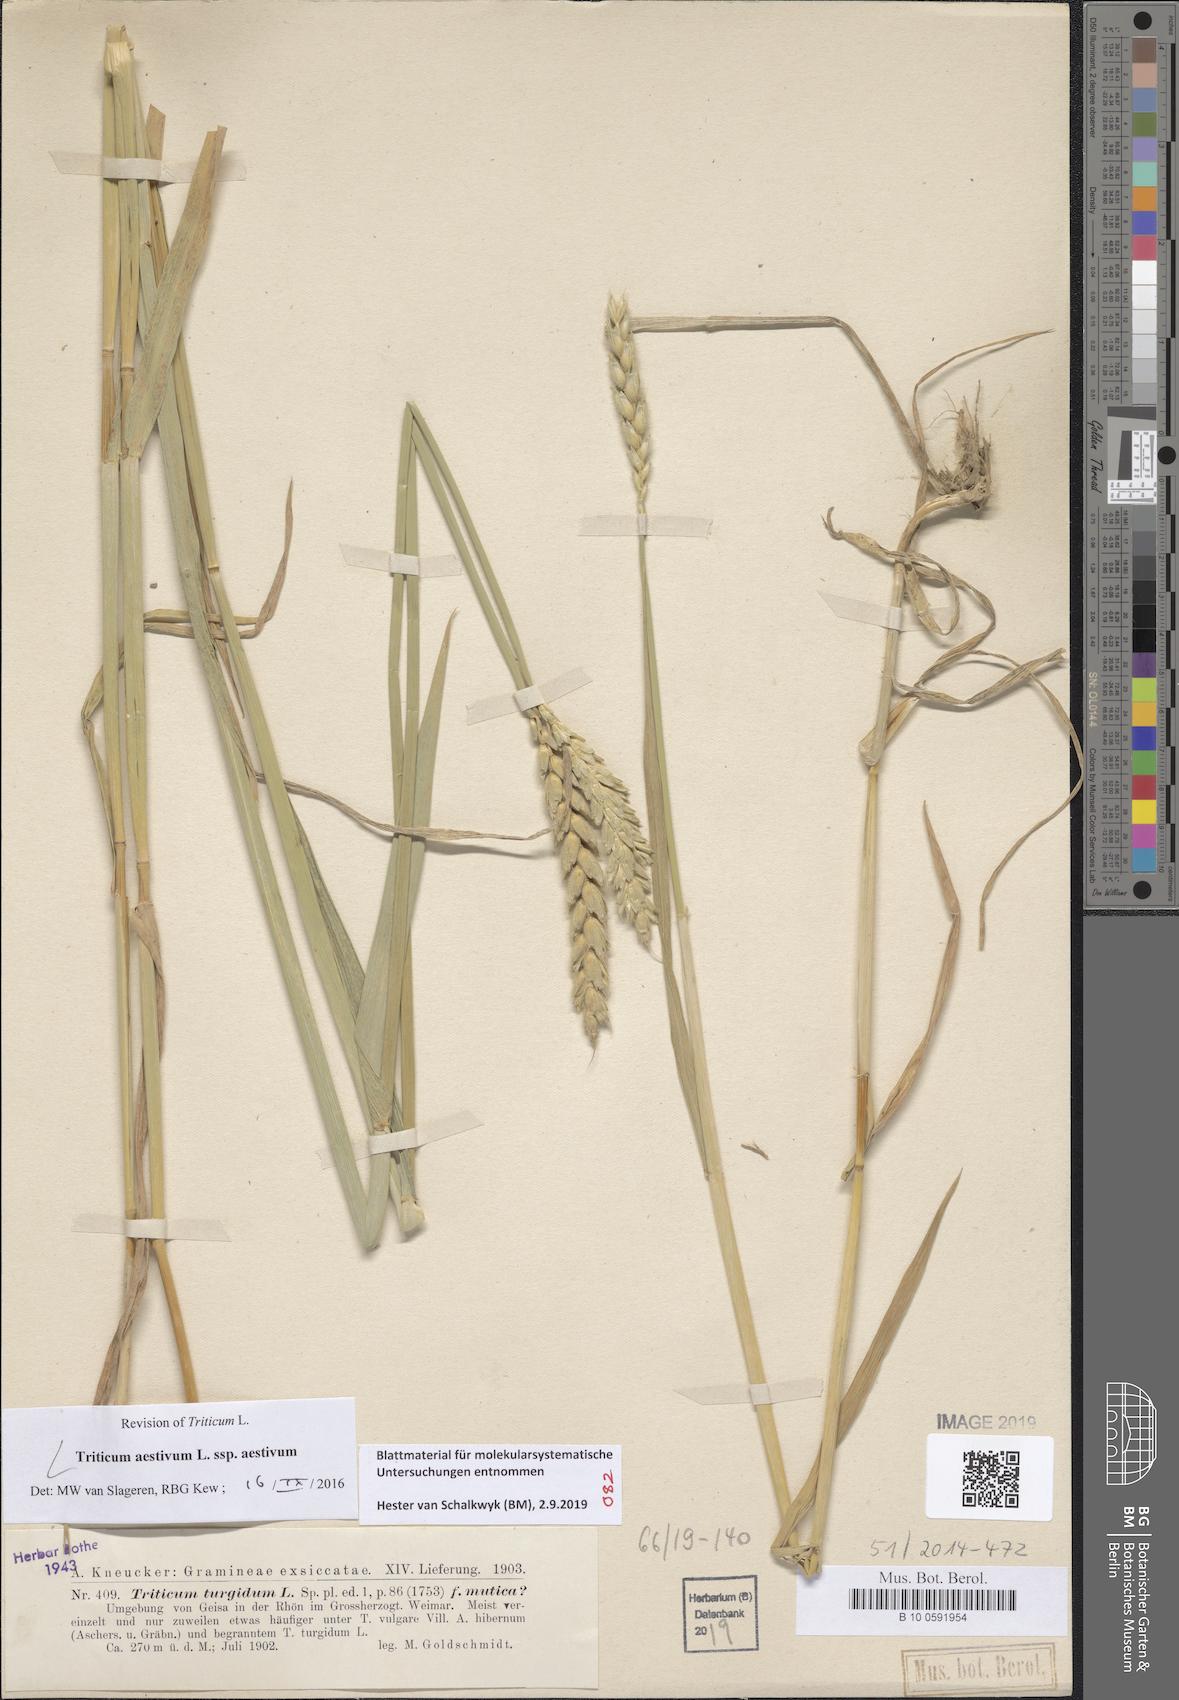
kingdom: Plantae
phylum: Tracheophyta
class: Liliopsida
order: Poales
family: Poaceae
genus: Triticum
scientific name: Triticum aestivum
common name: Common wheat
